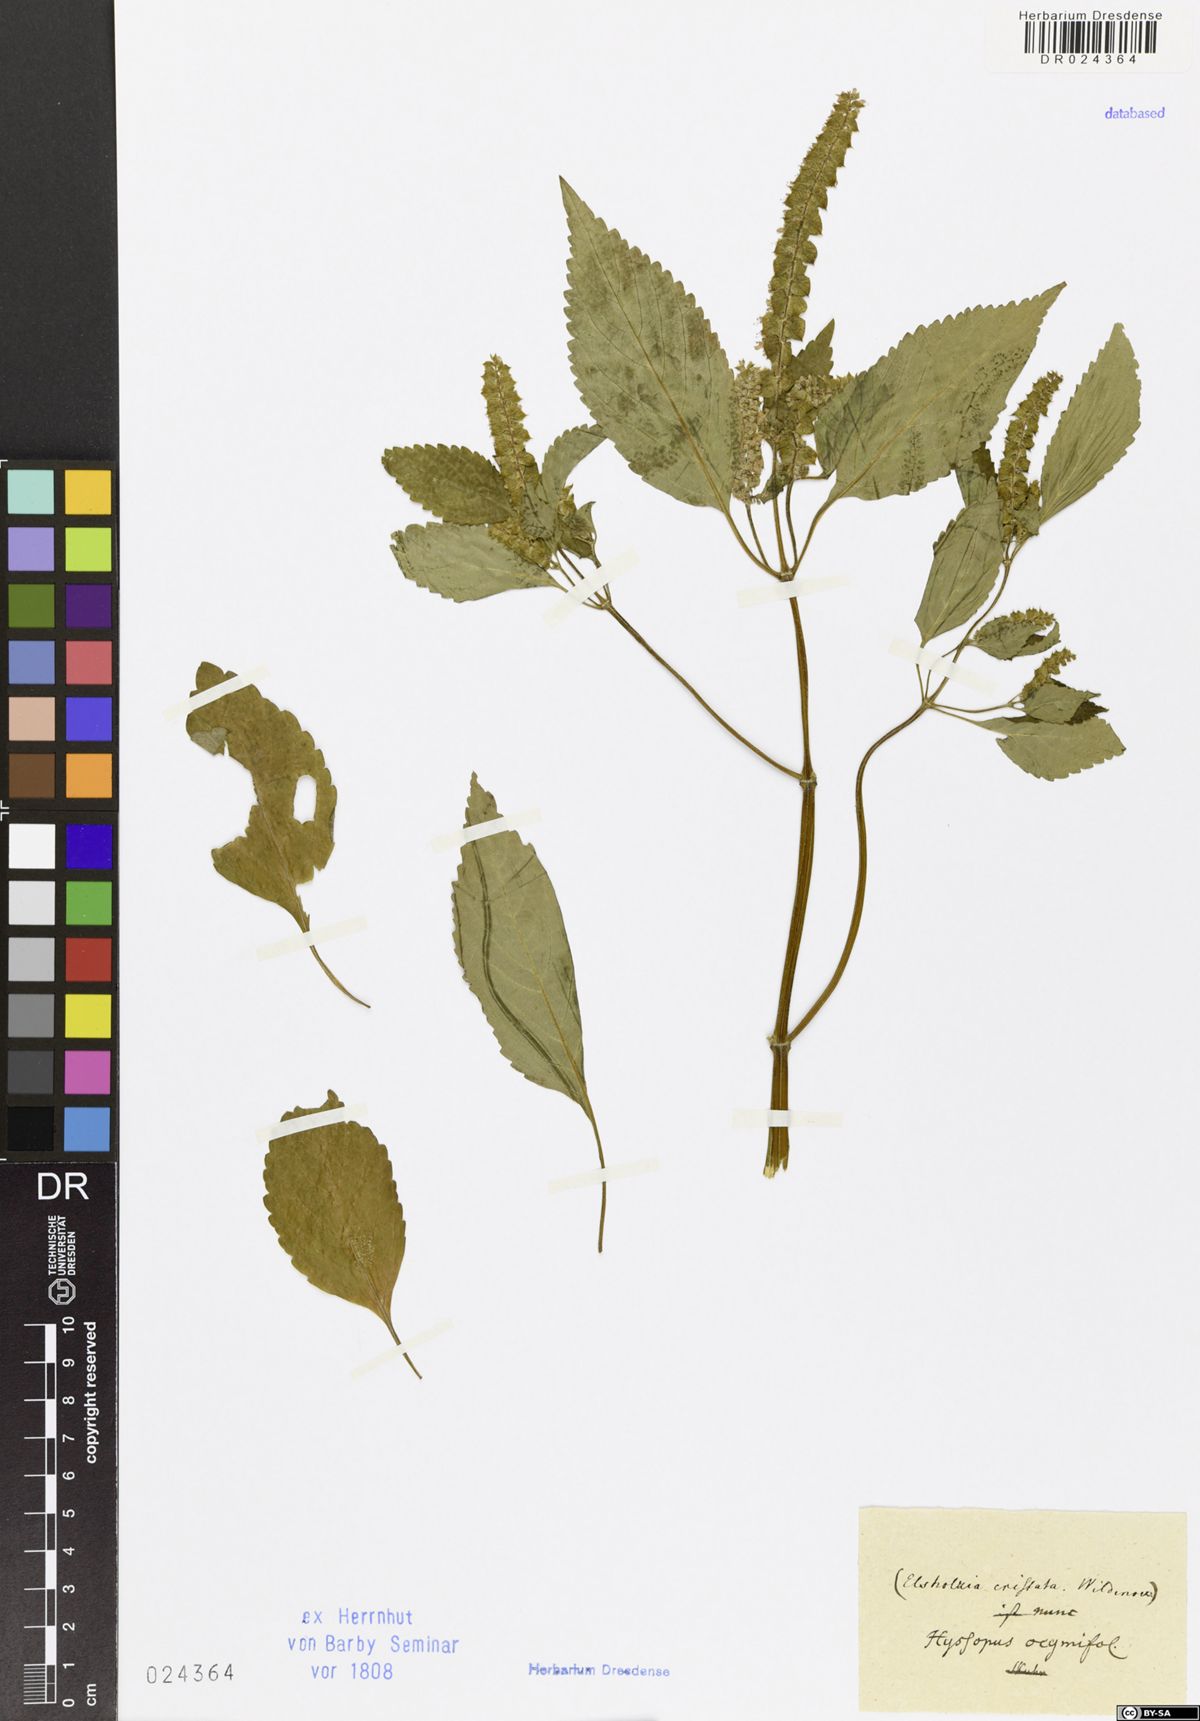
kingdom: Plantae
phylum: Tracheophyta
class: Magnoliopsida
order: Lamiales
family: Lamiaceae
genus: Elsholtzia
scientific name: Elsholtzia ciliata
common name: Ciliate elsholtzia
